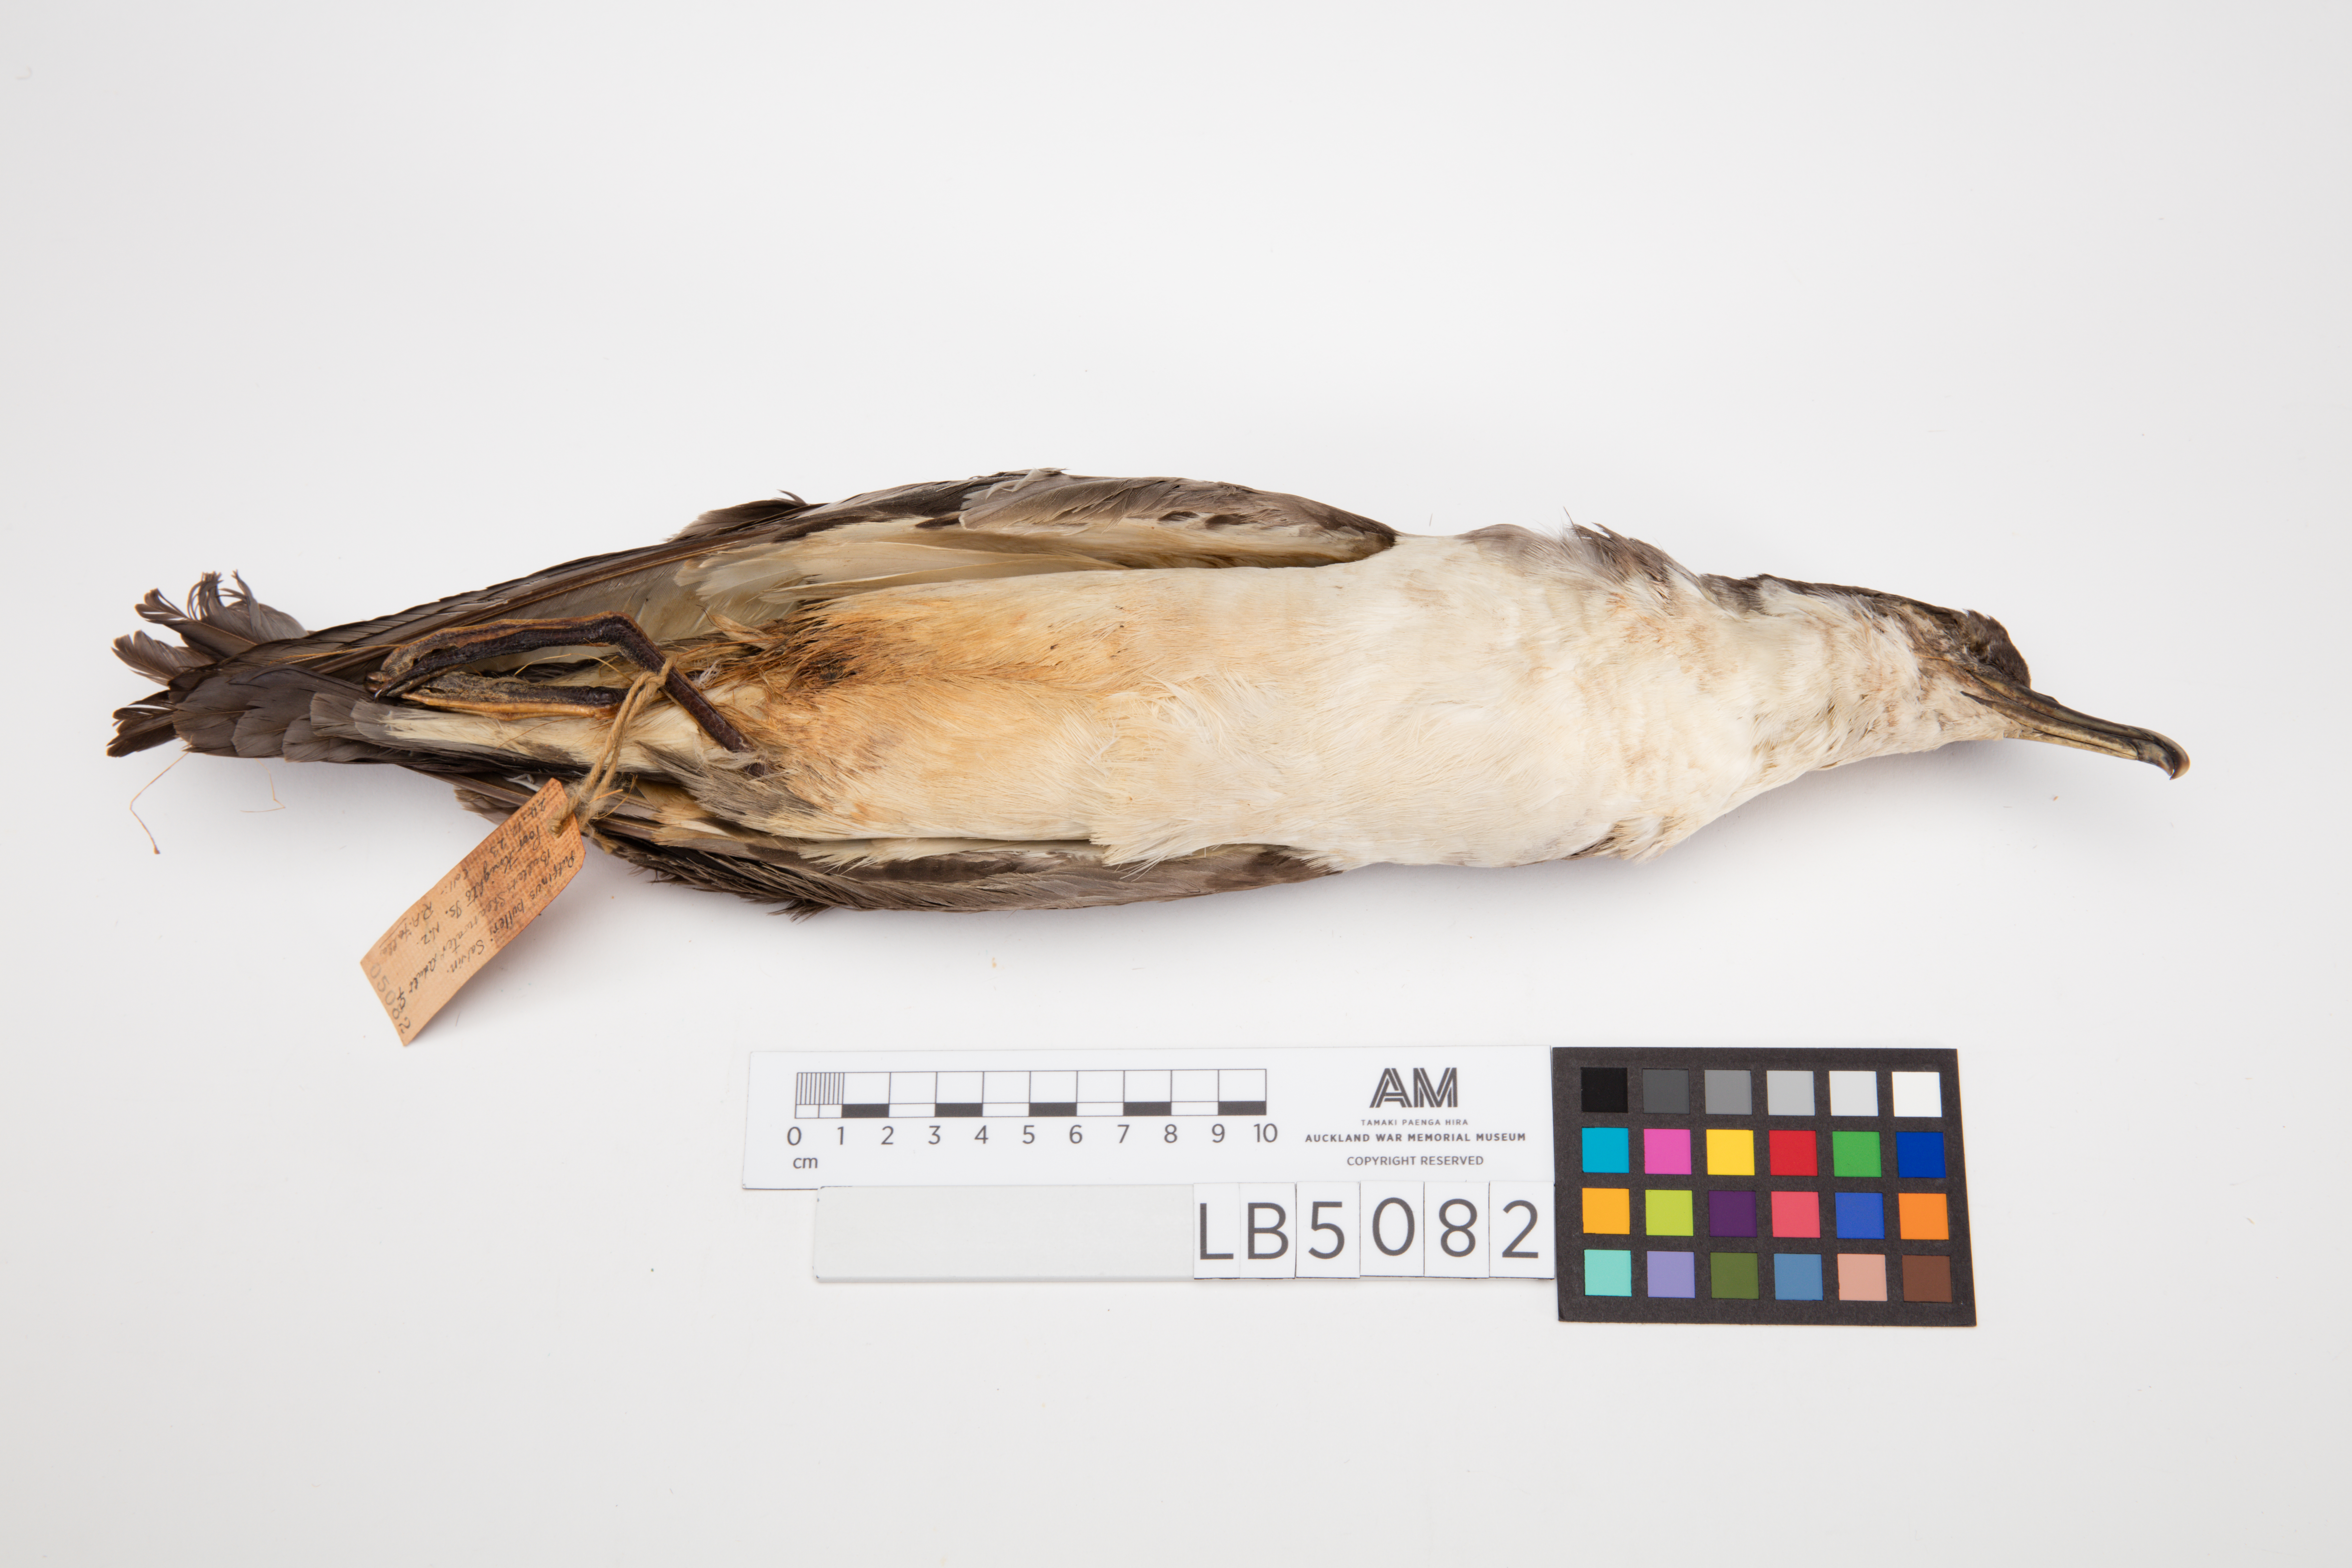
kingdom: Animalia
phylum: Chordata
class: Aves
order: Procellariiformes
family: Procellariidae
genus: Ardenna
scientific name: Ardenna
